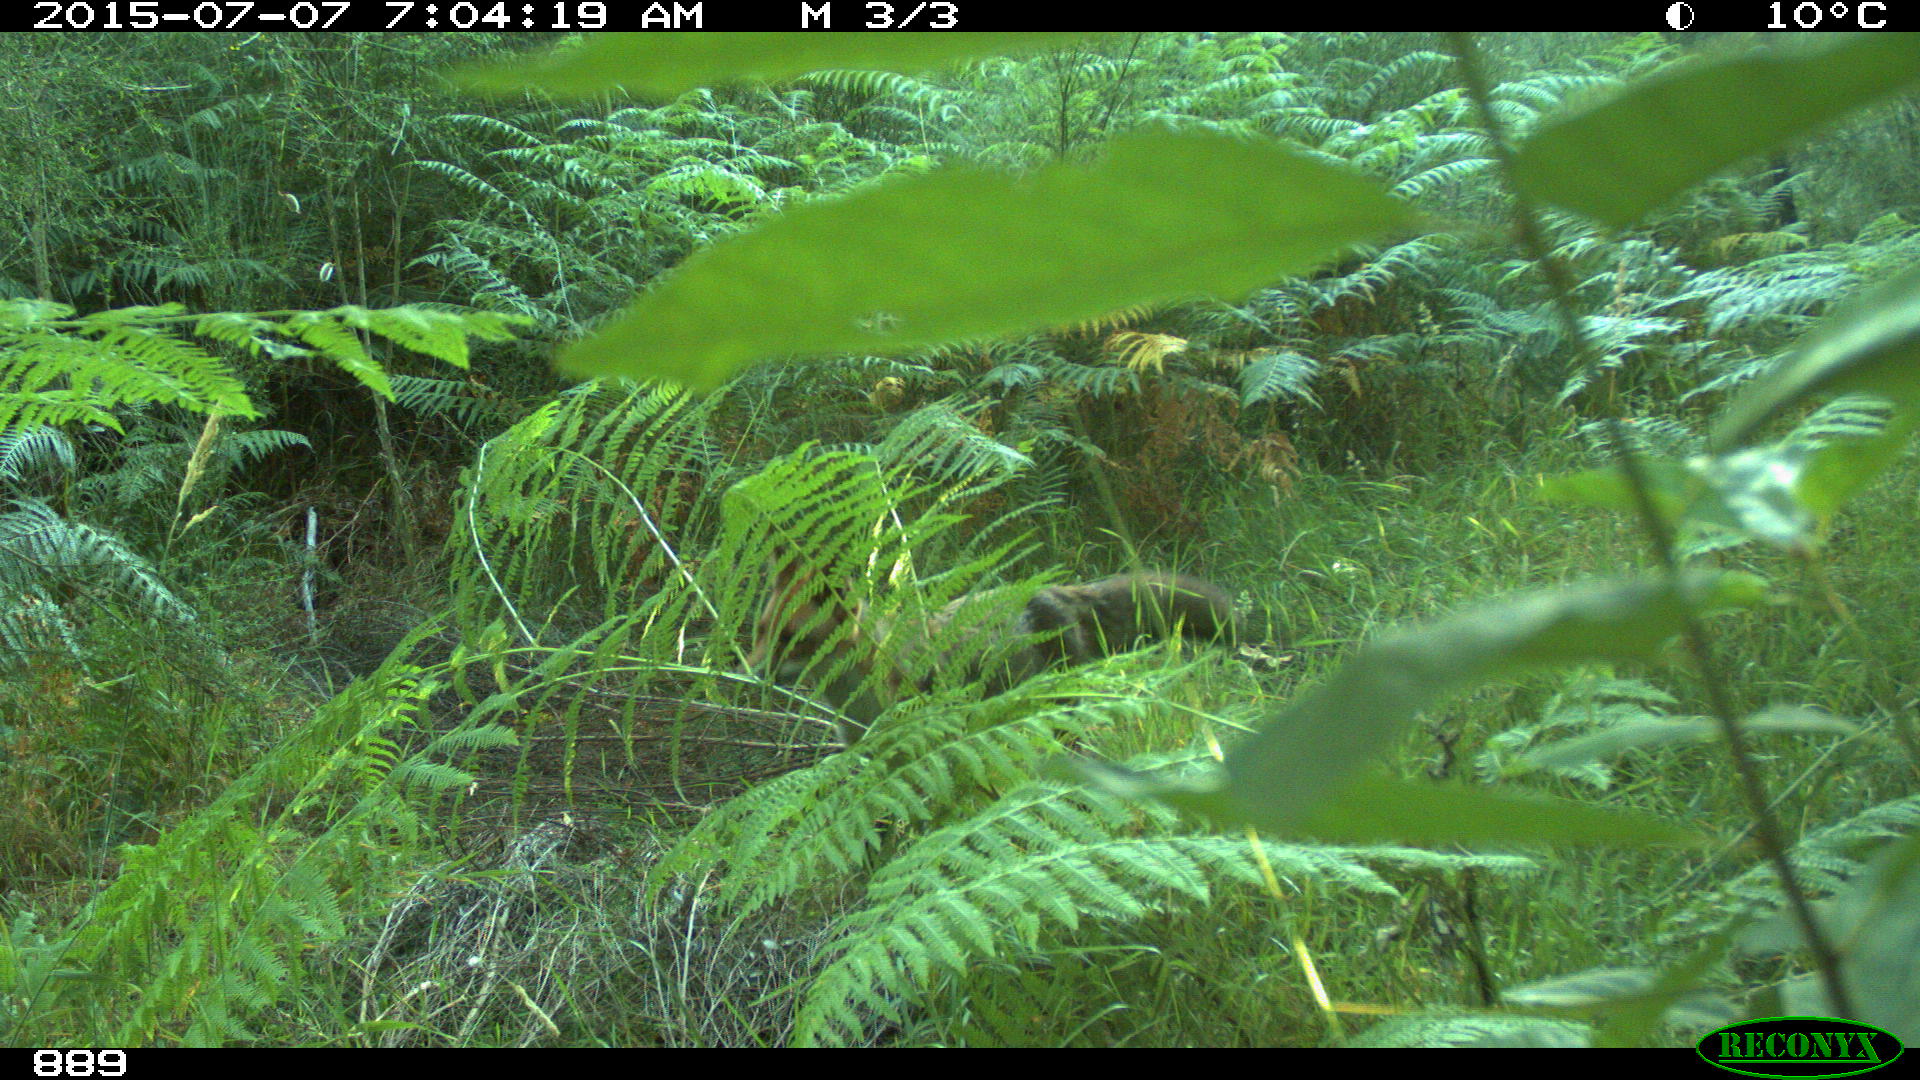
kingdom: Animalia
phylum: Chordata
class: Mammalia
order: Carnivora
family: Canidae
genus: Vulpes
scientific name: Vulpes vulpes
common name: Red fox
